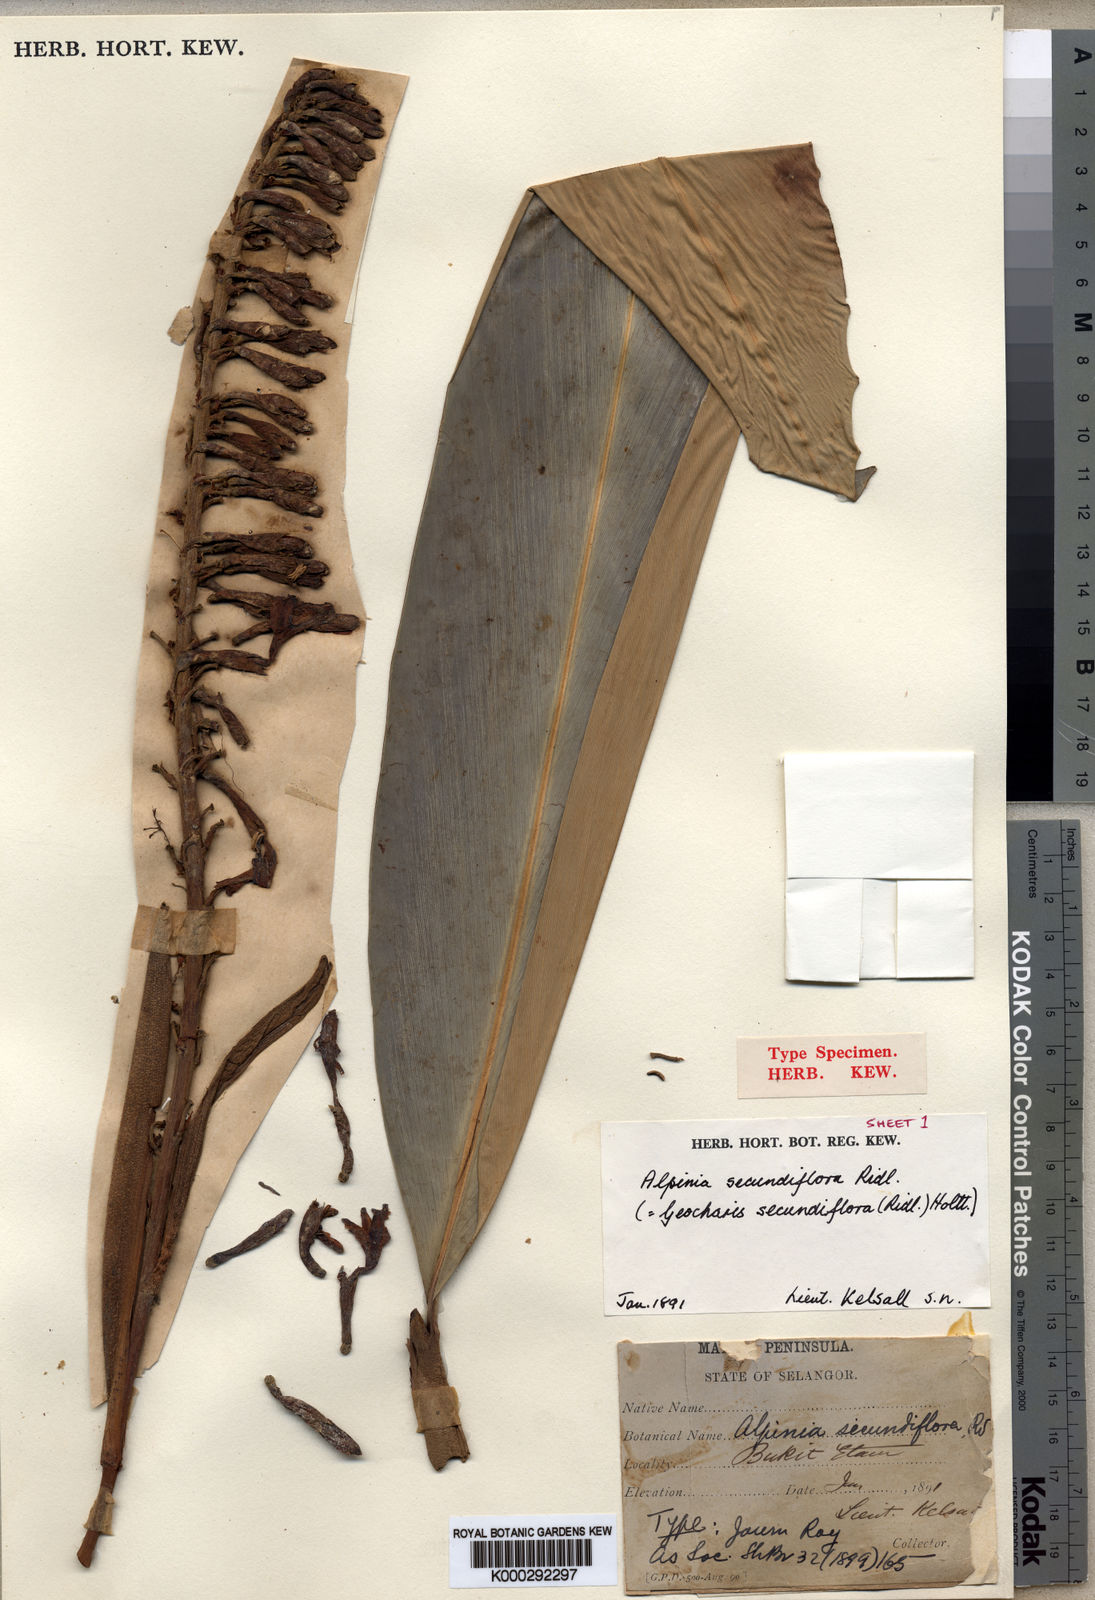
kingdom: Plantae
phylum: Tracheophyta
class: Liliopsida
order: Zingiberales
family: Zingiberaceae
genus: Geocharis
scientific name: Geocharis secundiflora
